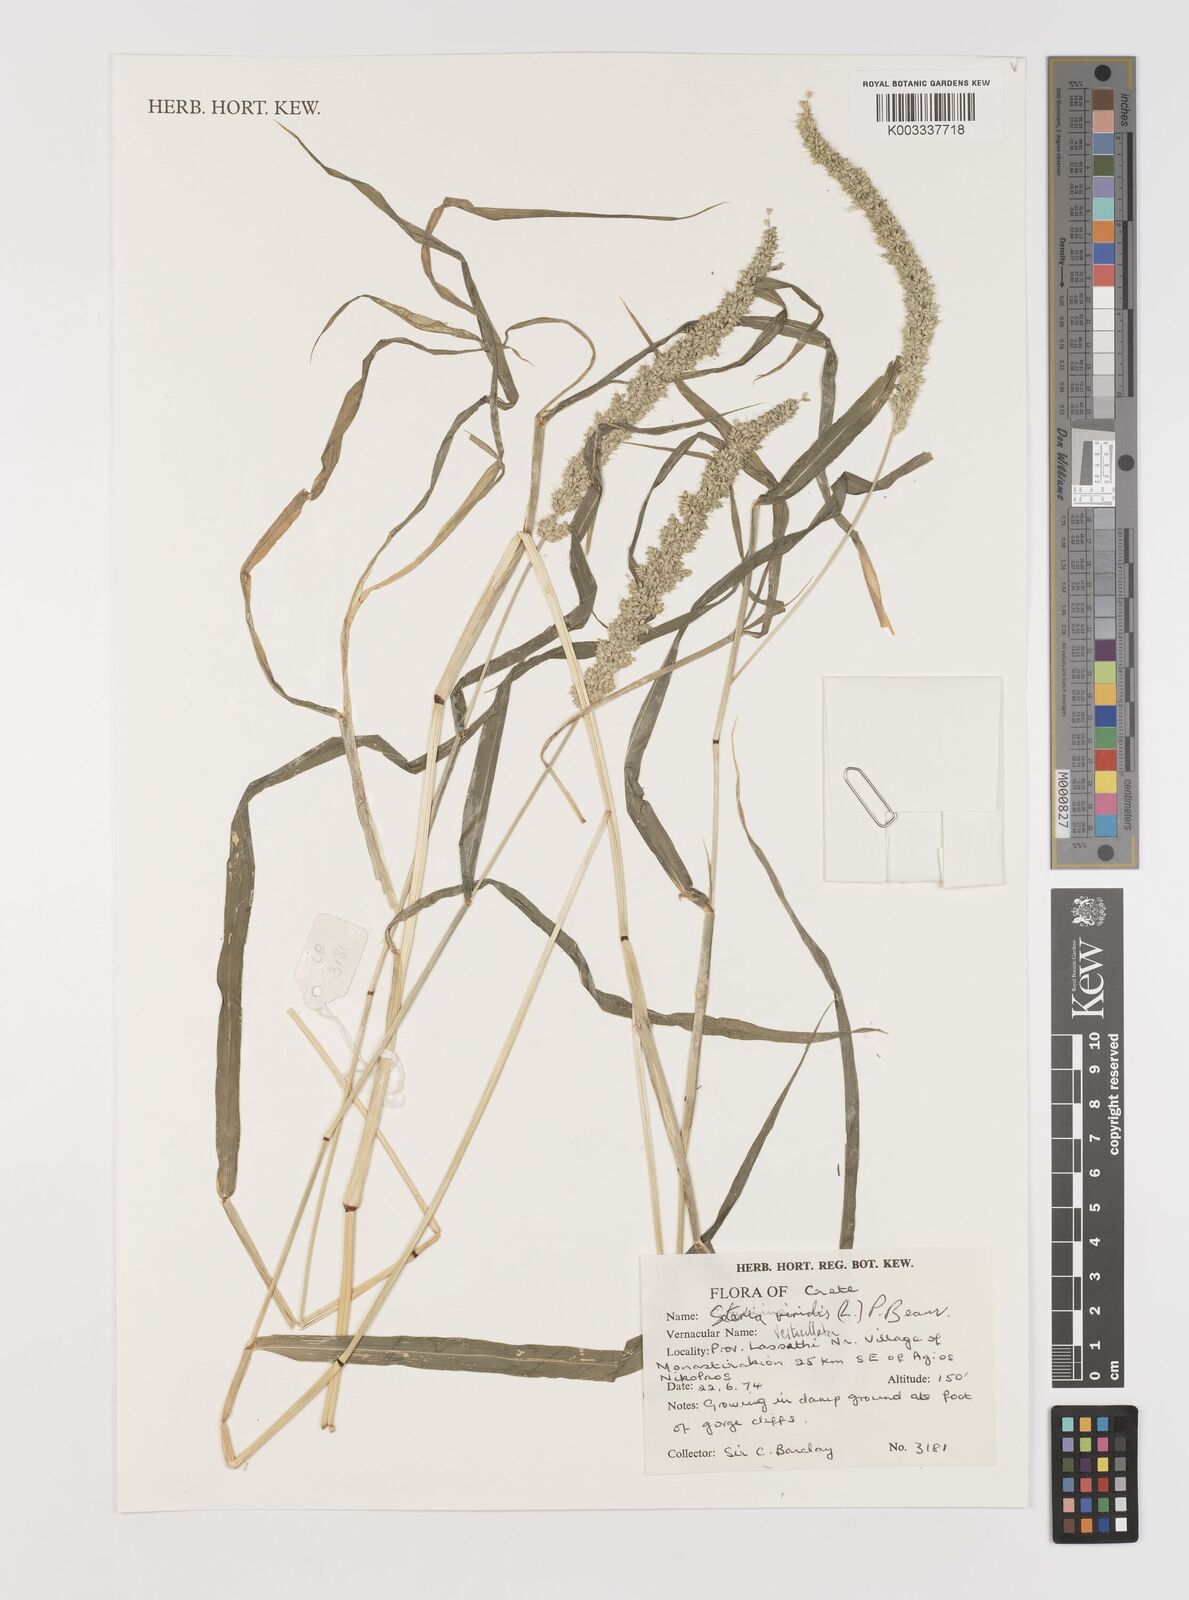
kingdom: Plantae
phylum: Tracheophyta
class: Liliopsida
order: Poales
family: Poaceae
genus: Setaria
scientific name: Setaria verticillata
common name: Hooked bristlegrass
